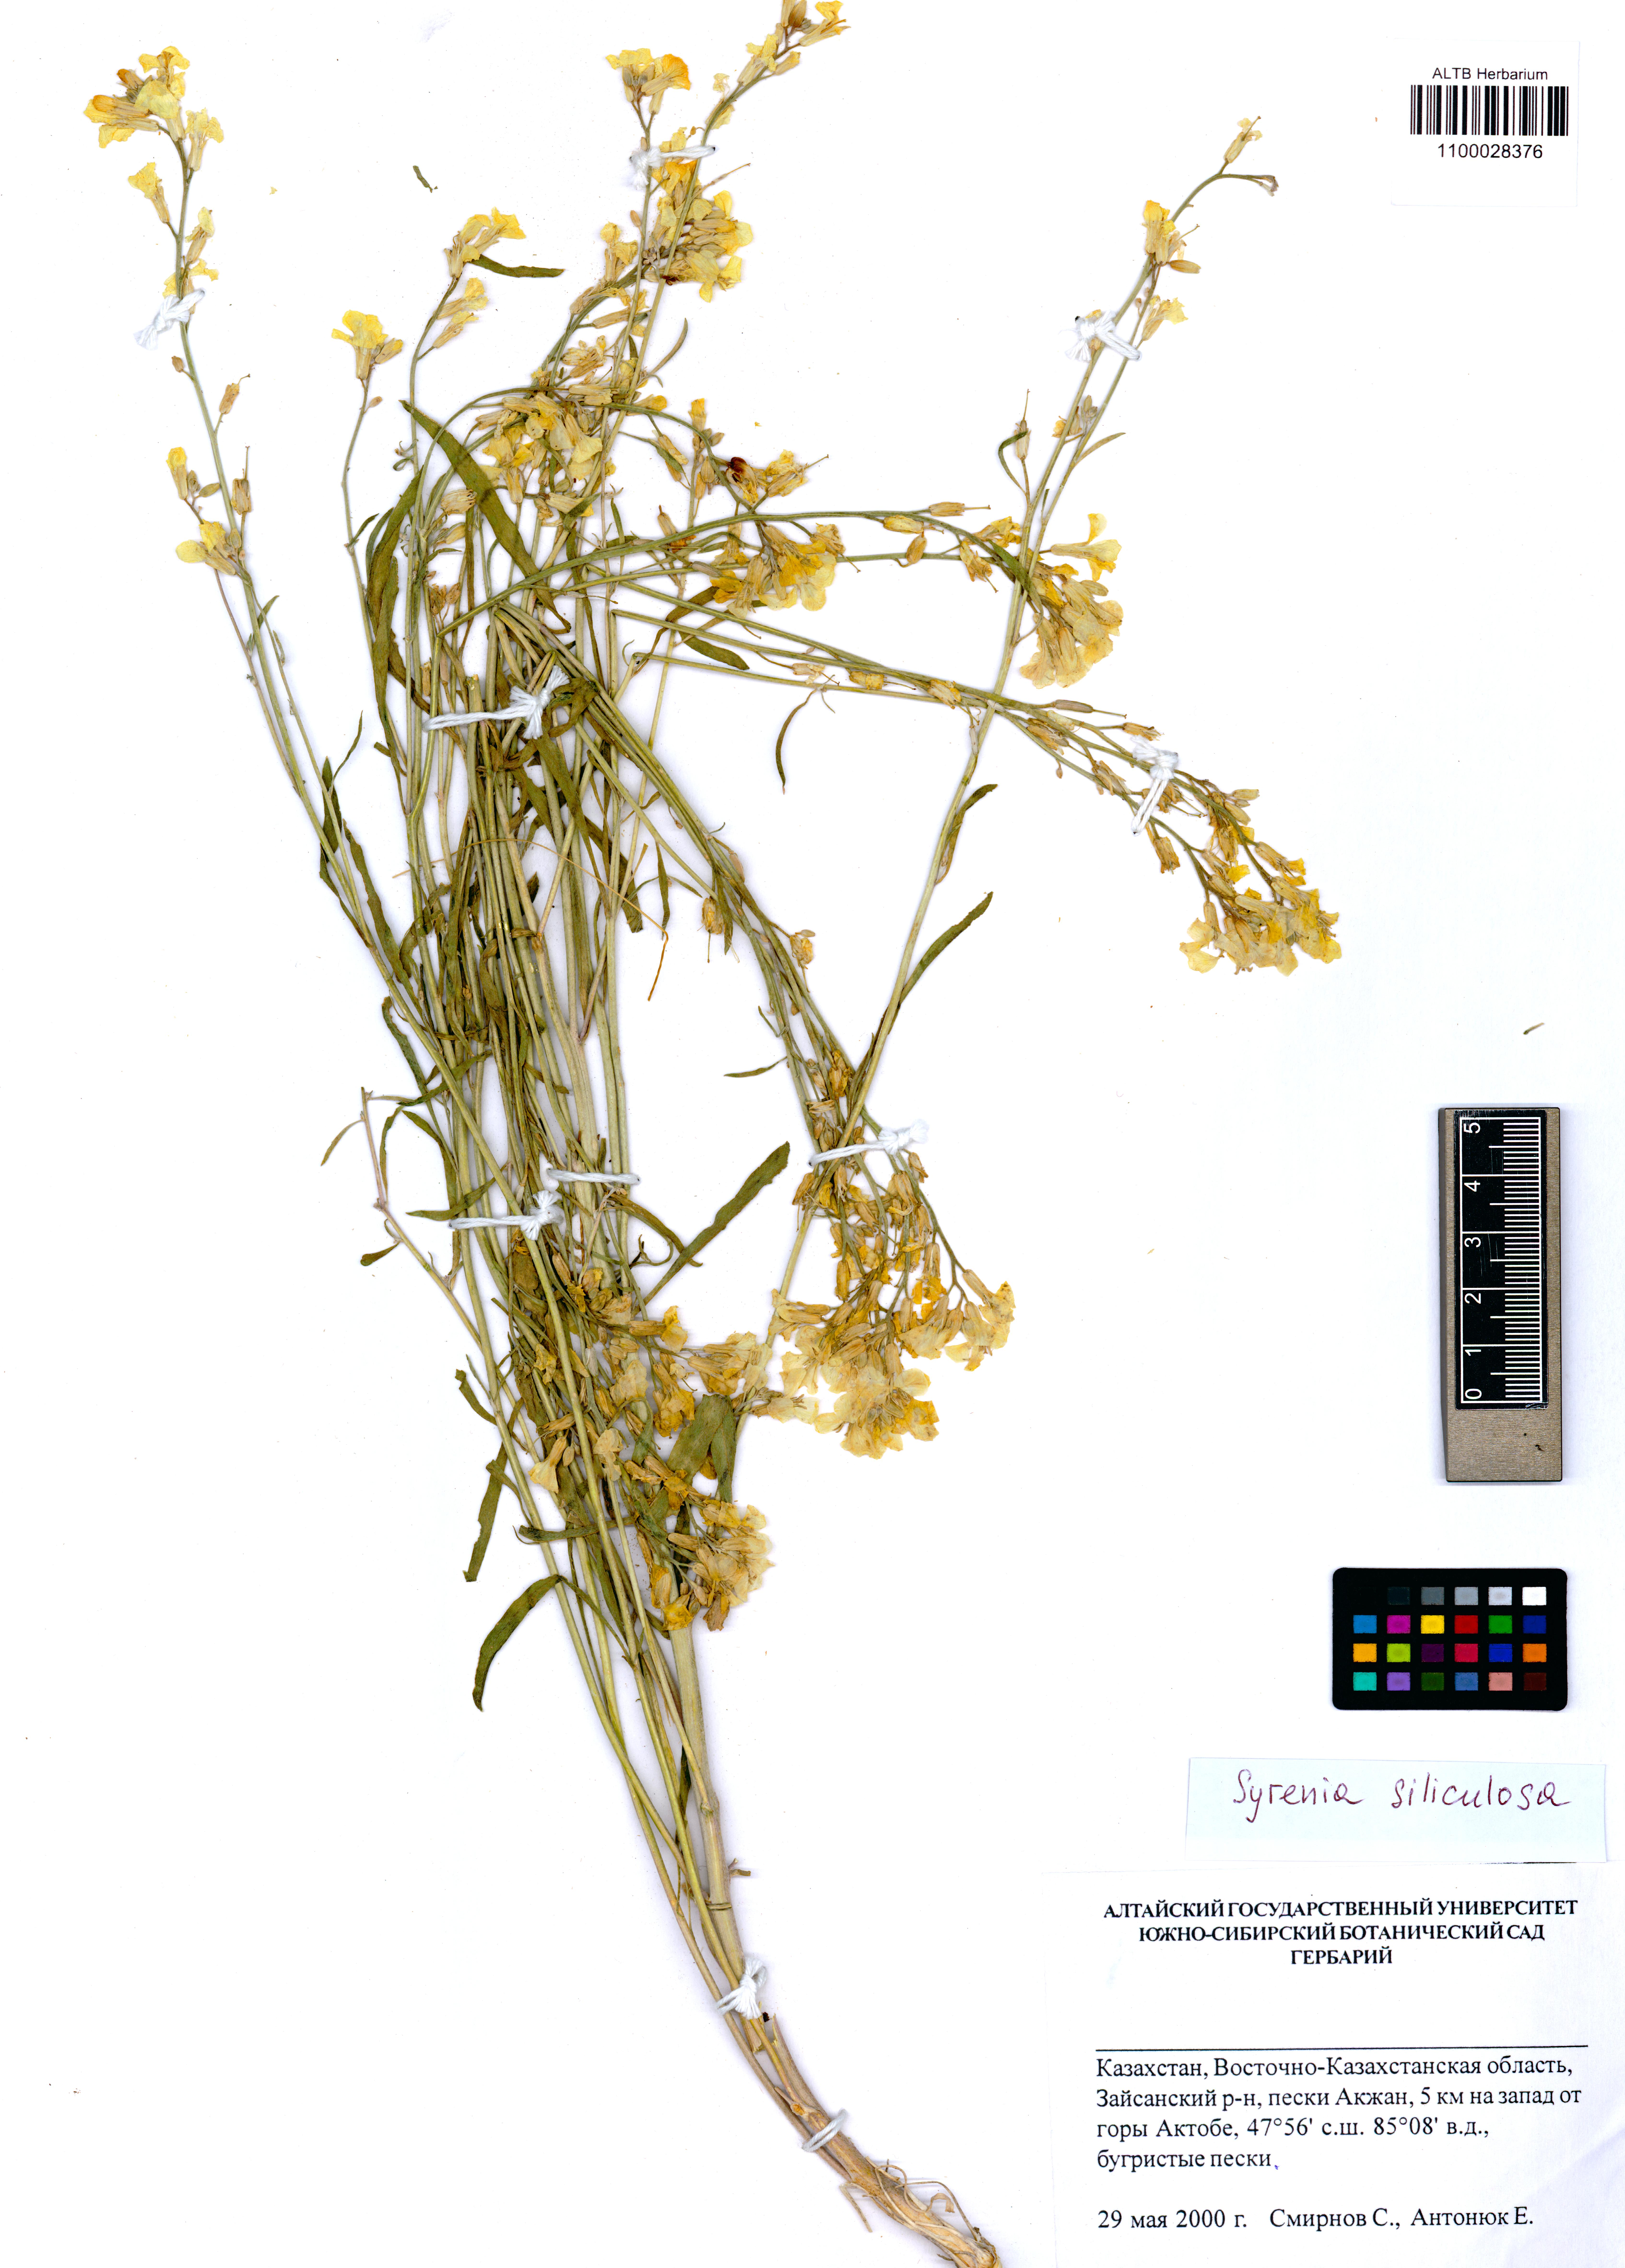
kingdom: Plantae
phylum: Tracheophyta
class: Magnoliopsida
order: Brassicales
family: Brassicaceae
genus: Syrenia
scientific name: Syrenia siliculosa
